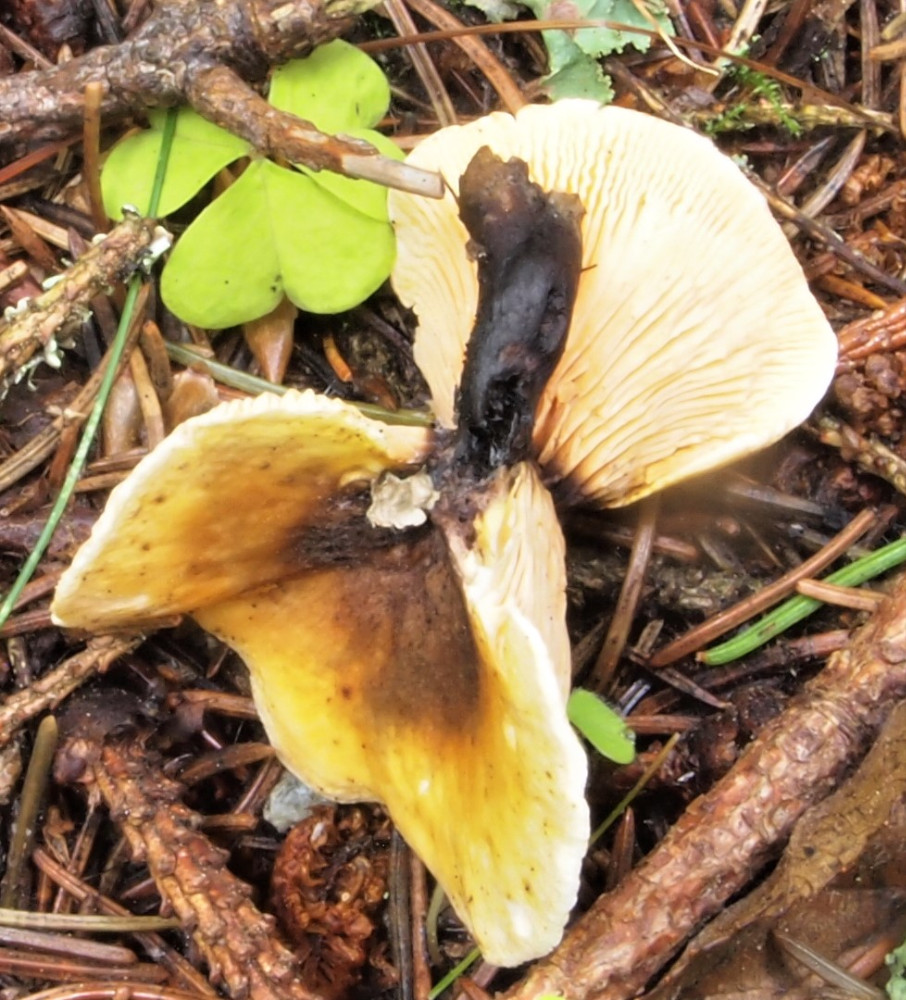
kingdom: Fungi
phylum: Basidiomycota
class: Agaricomycetes
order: Boletales
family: Hygrophoropsidaceae
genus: Hygrophoropsis
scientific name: Hygrophoropsis aurantiaca
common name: almindelig orangekantarel
